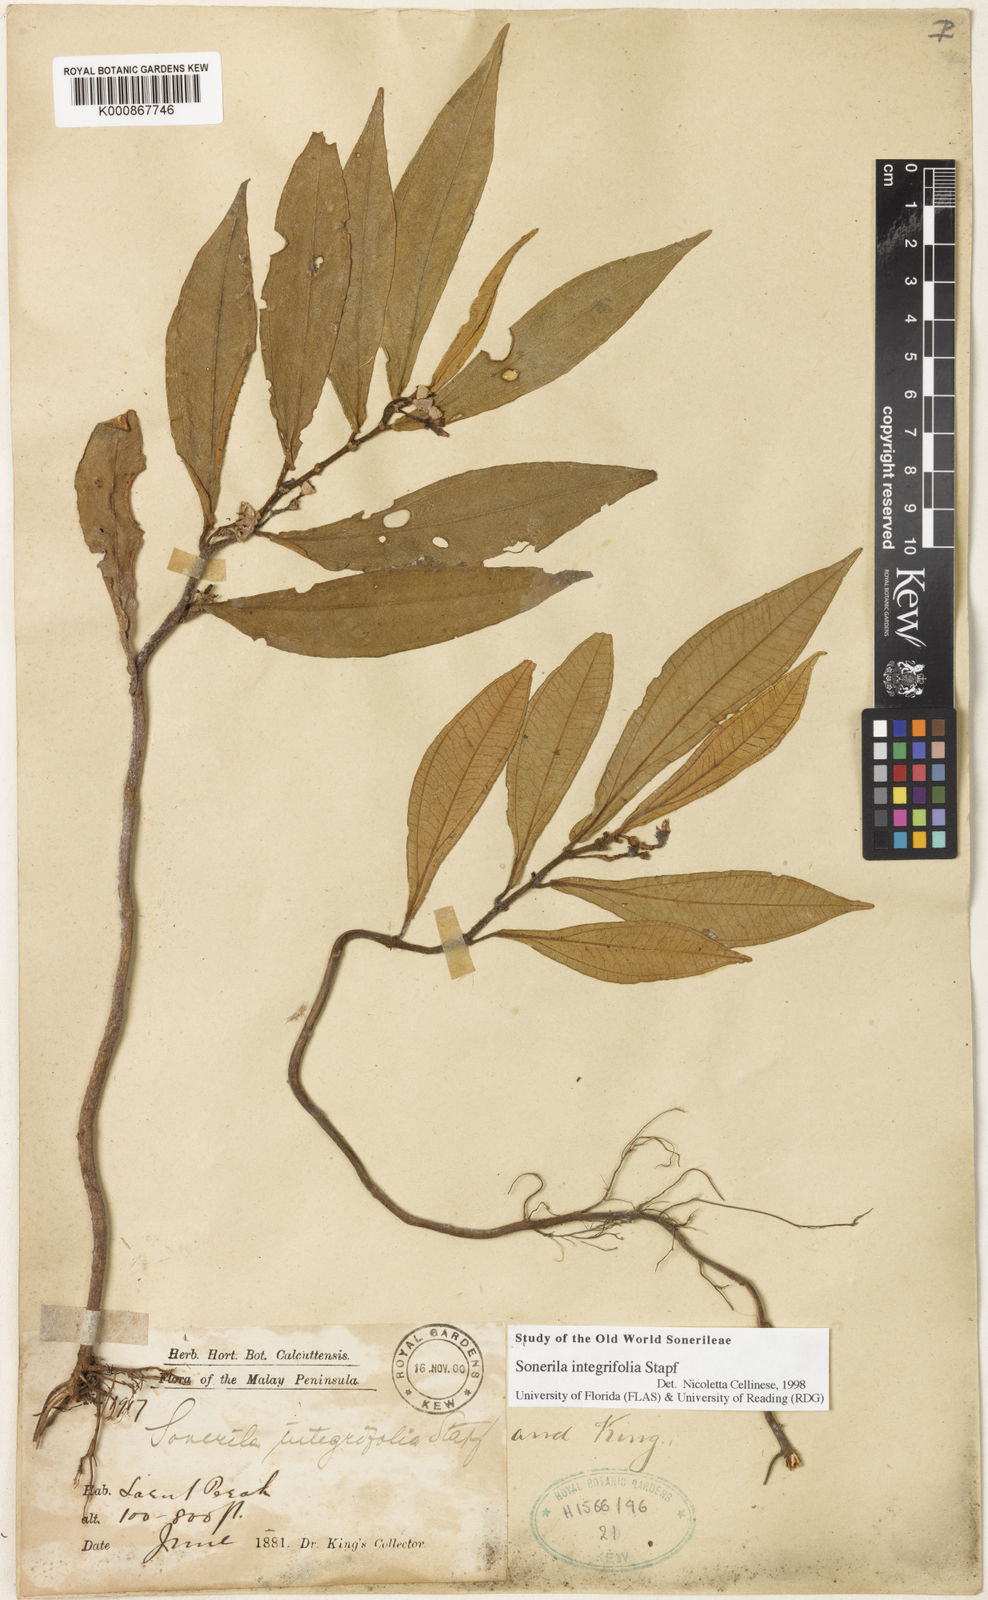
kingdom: Plantae
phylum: Tracheophyta
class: Magnoliopsida
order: Myrtales
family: Melastomataceae
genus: Sonerila
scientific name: Sonerila integrifolia
